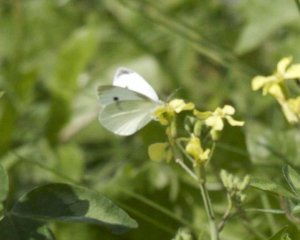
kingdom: Animalia
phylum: Arthropoda
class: Insecta
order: Lepidoptera
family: Pieridae
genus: Pieris
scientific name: Pieris rapae
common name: Cabbage White
